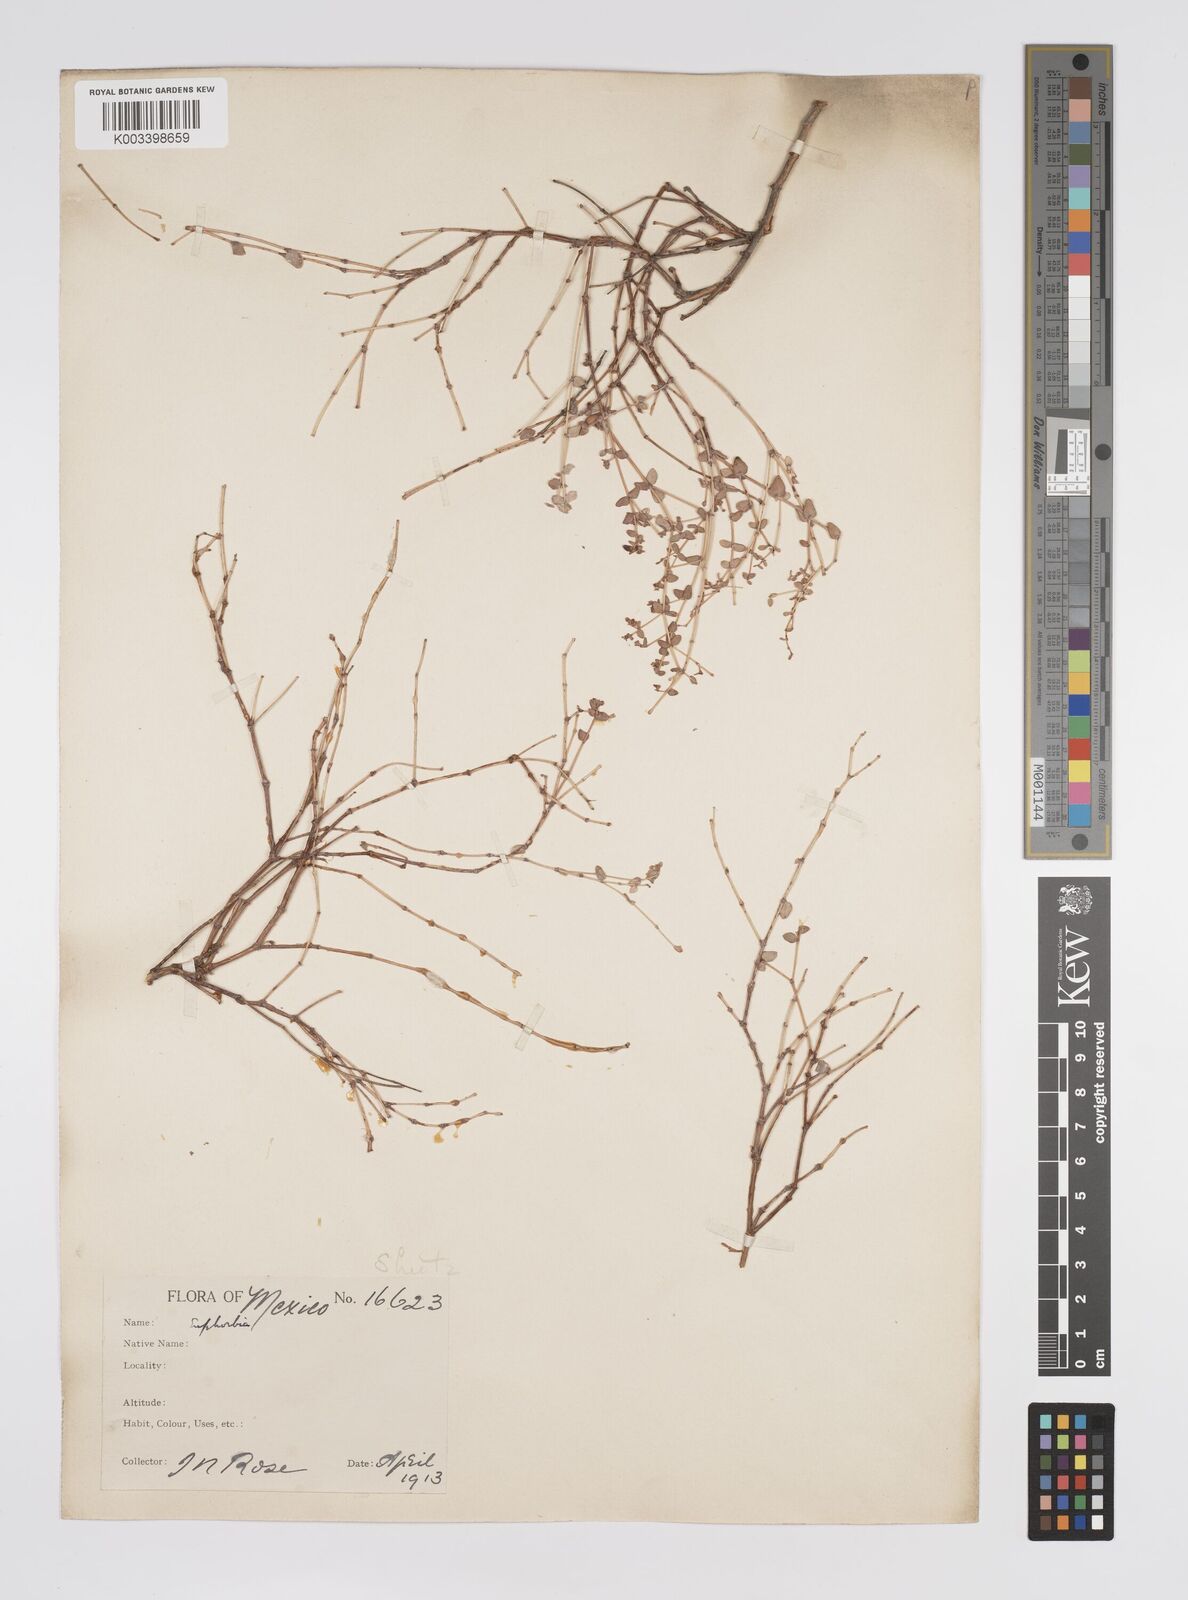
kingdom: Plantae
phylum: Tracheophyta
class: Magnoliopsida
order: Malpighiales
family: Euphorbiaceae
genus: Euphorbia
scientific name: Euphorbia
